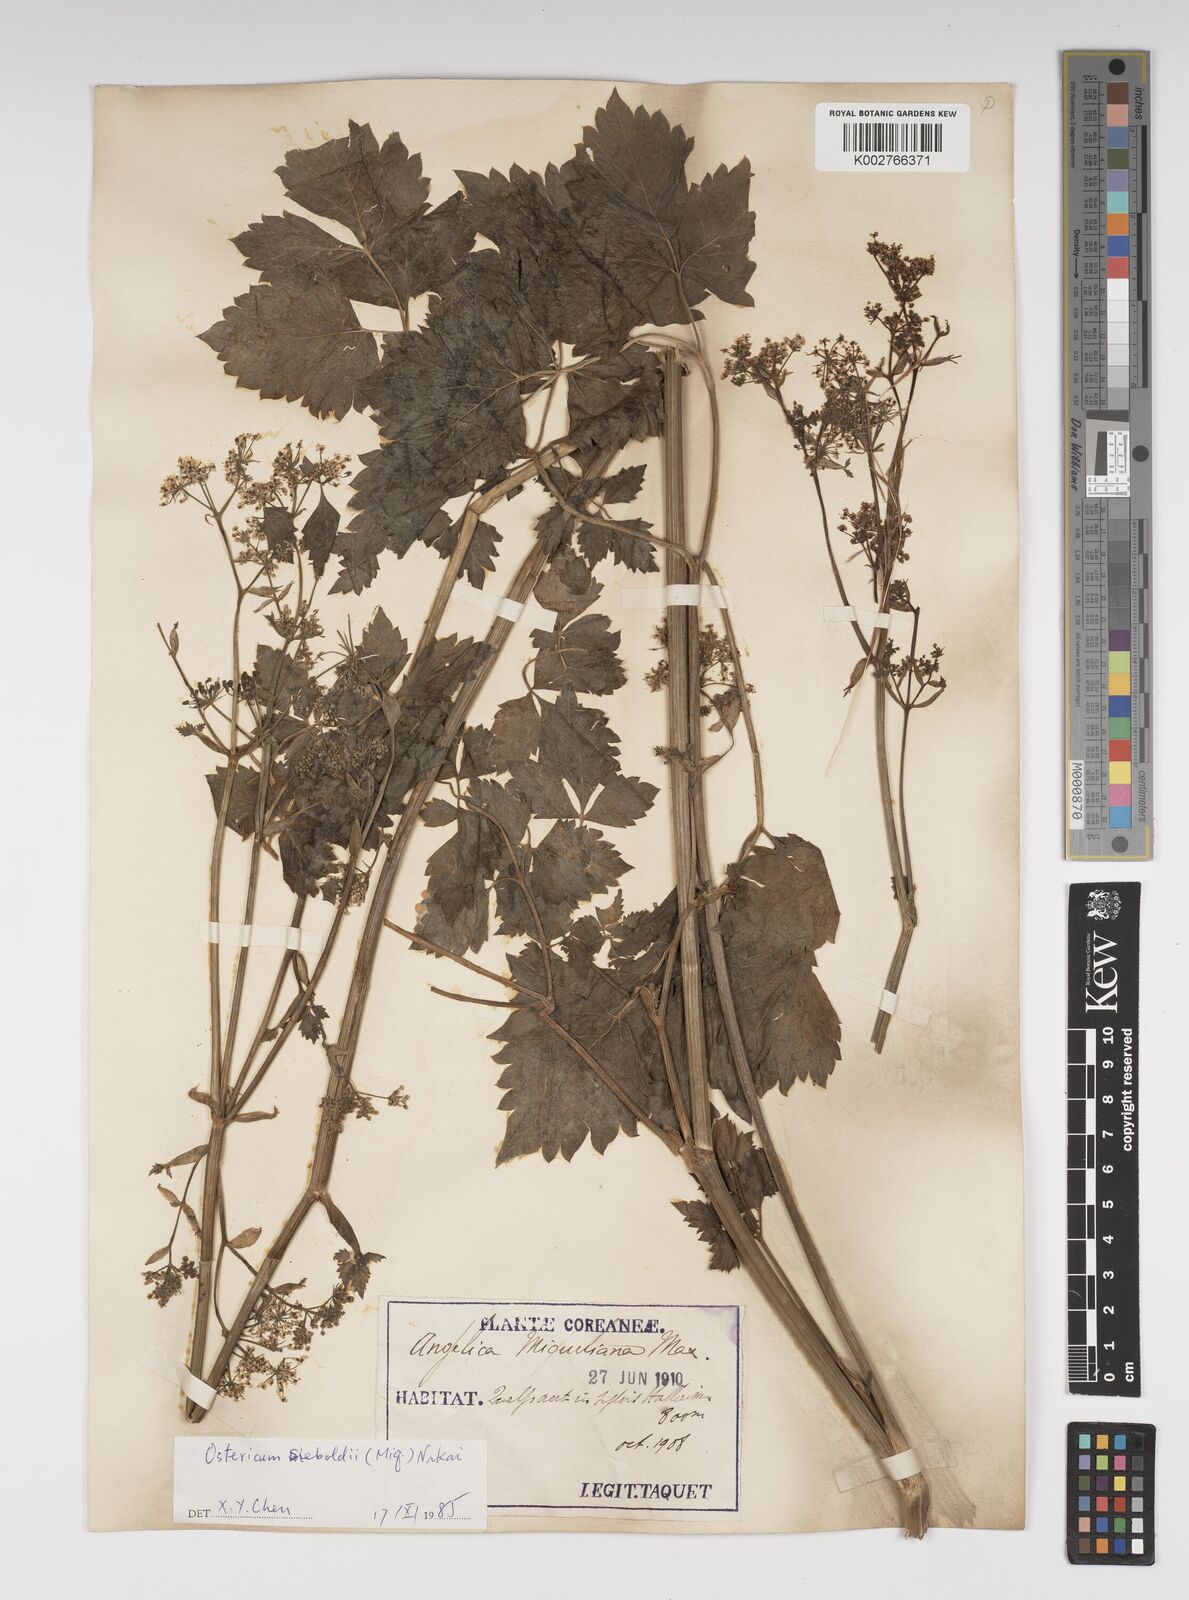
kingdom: Plantae
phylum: Tracheophyta
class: Magnoliopsida
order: Apiales
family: Apiaceae
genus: Ostericum
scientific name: Ostericum sieboldii
